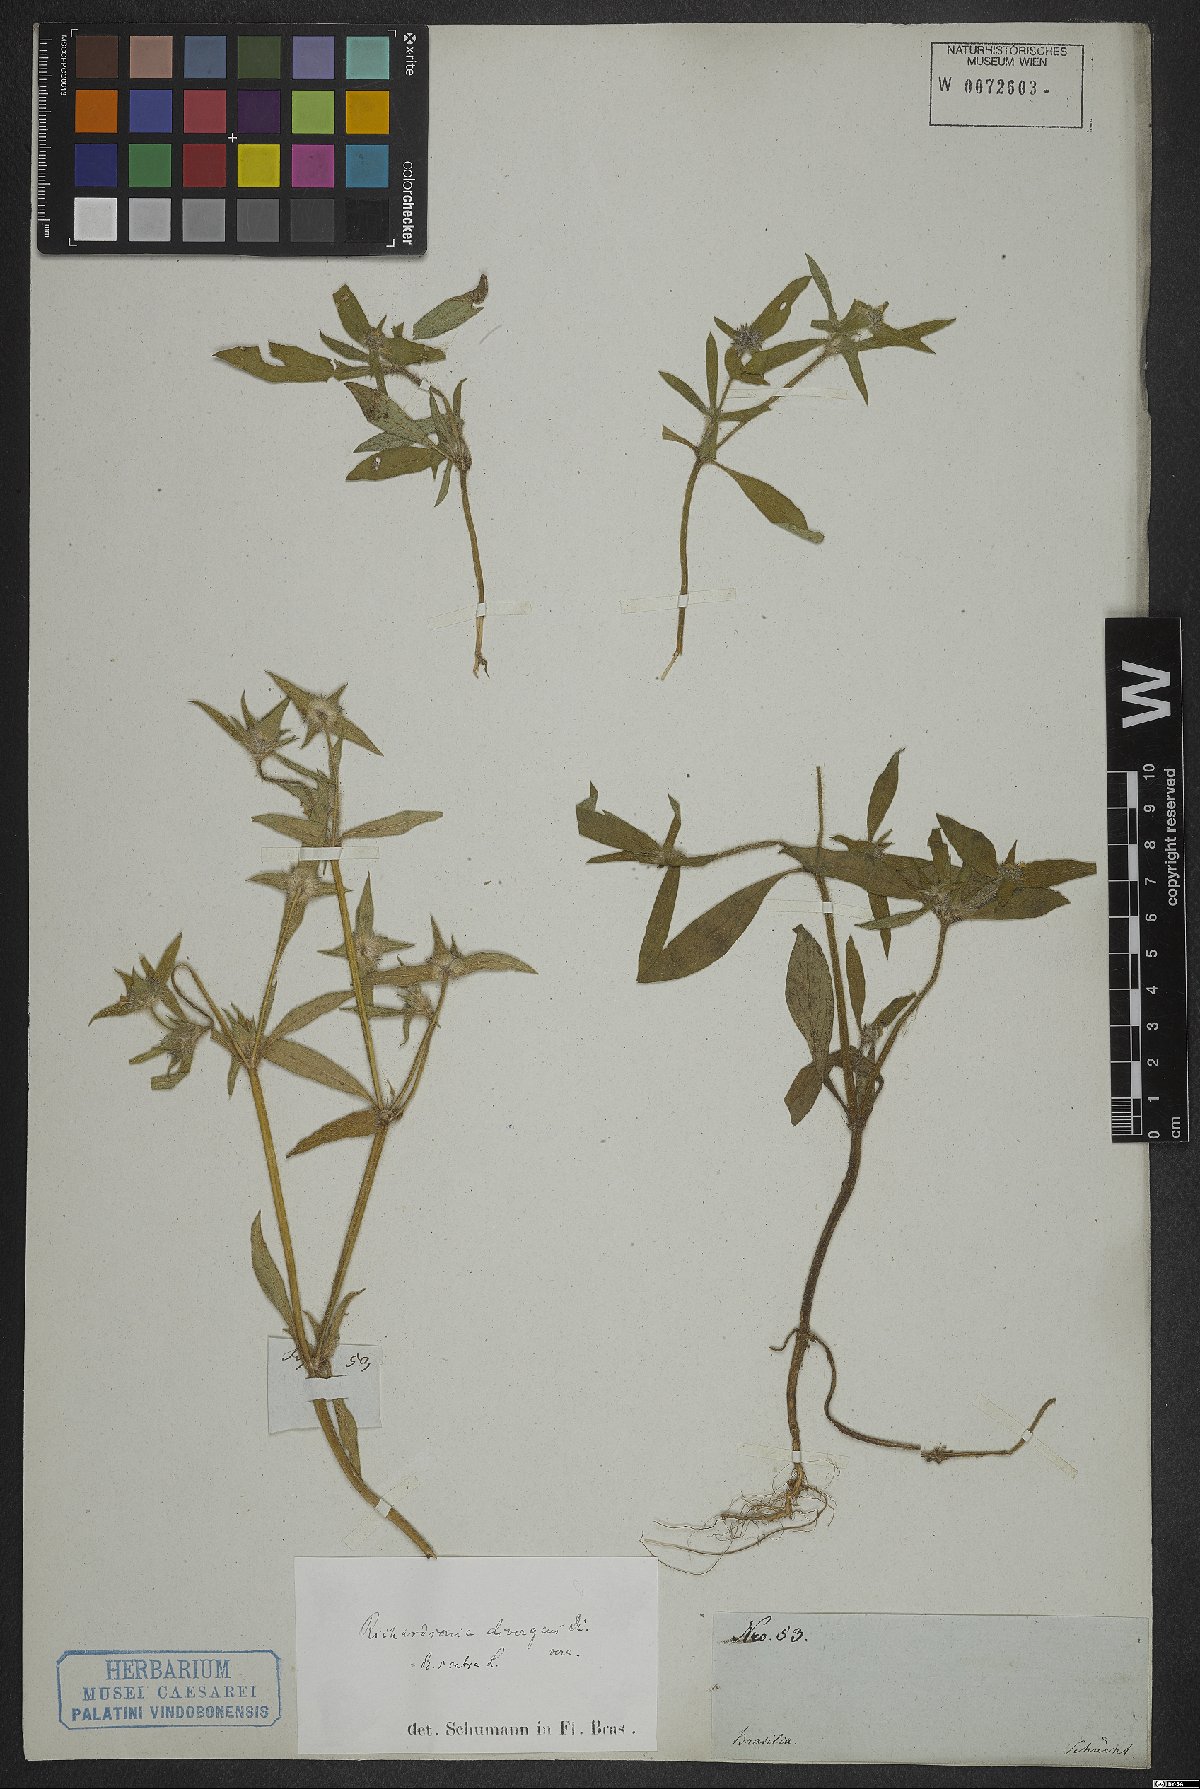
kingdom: Plantae
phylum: Tracheophyta
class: Magnoliopsida
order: Gentianales
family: Rubiaceae
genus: Richardia
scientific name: Richardia scabra
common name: Rough mexican clover
